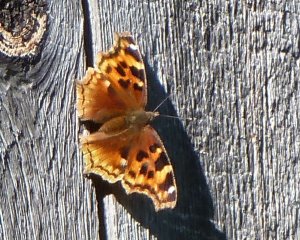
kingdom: Animalia
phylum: Arthropoda
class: Insecta
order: Lepidoptera
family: Nymphalidae
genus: Polygonia
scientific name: Polygonia vaualbum
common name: Compton Tortoiseshell
